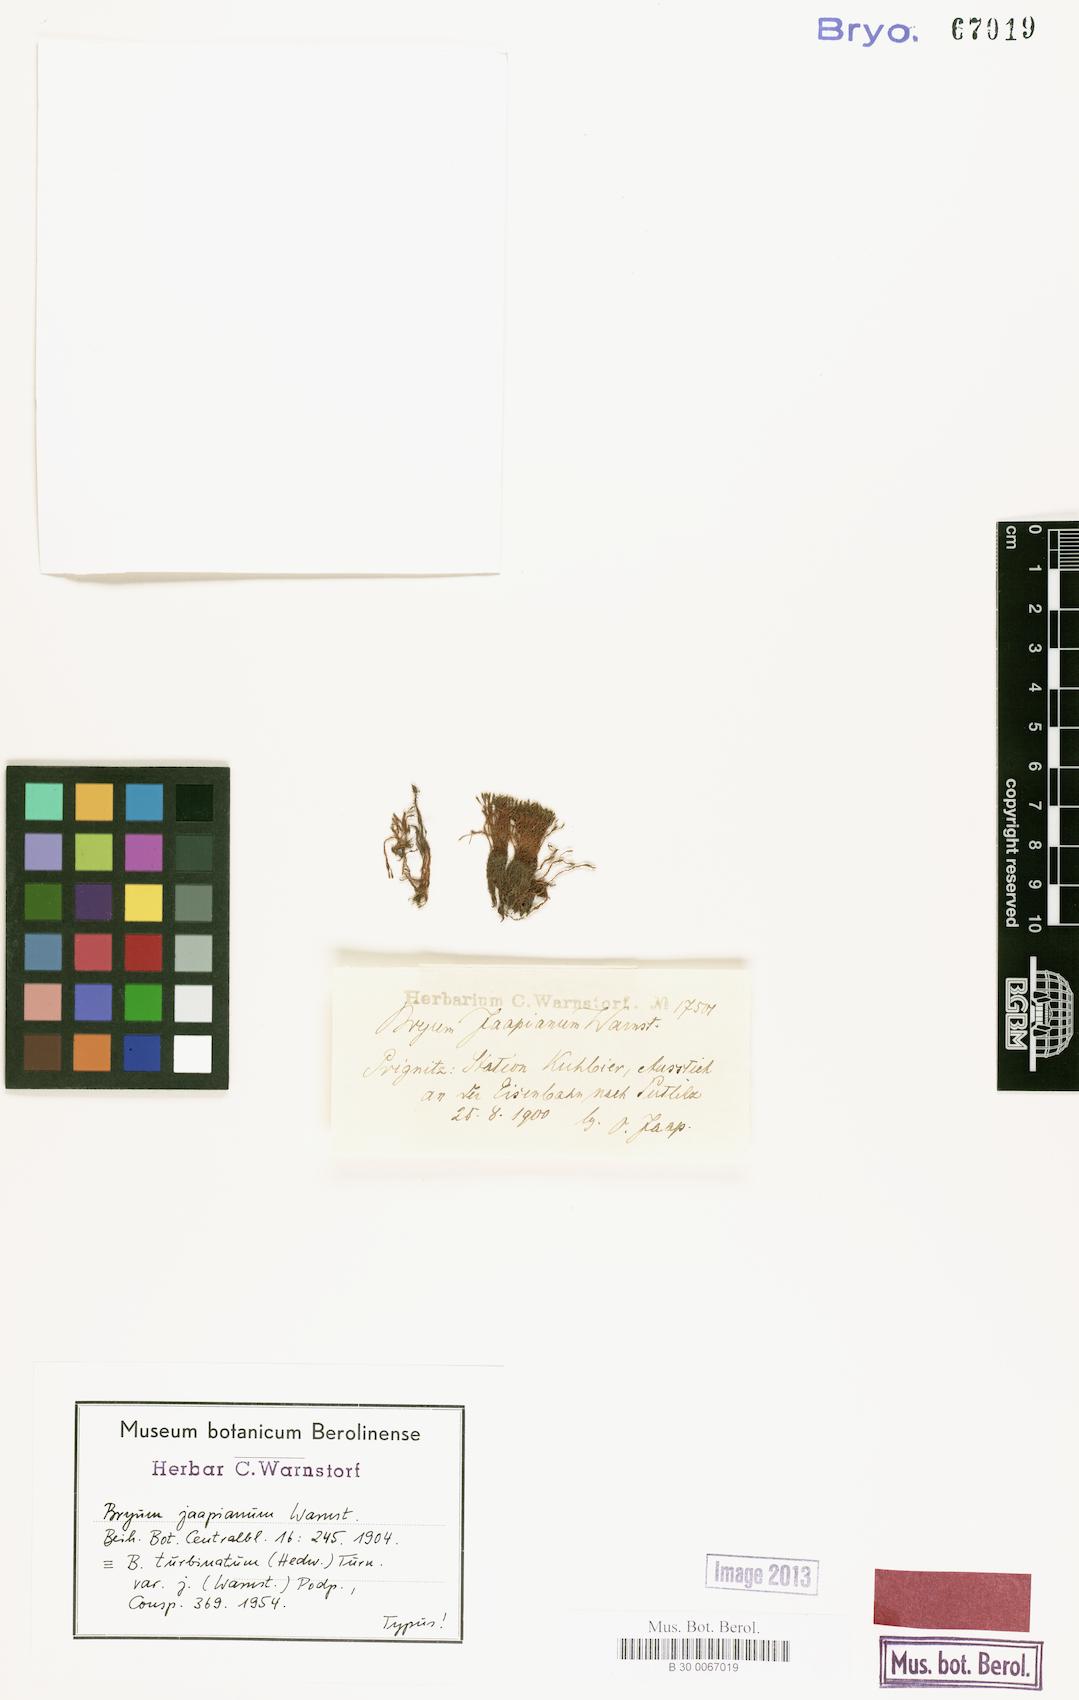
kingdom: Plantae
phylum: Bryophyta
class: Bryopsida
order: Bryales
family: Bryaceae
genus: Ptychostomum
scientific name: Ptychostomum turbinatum
